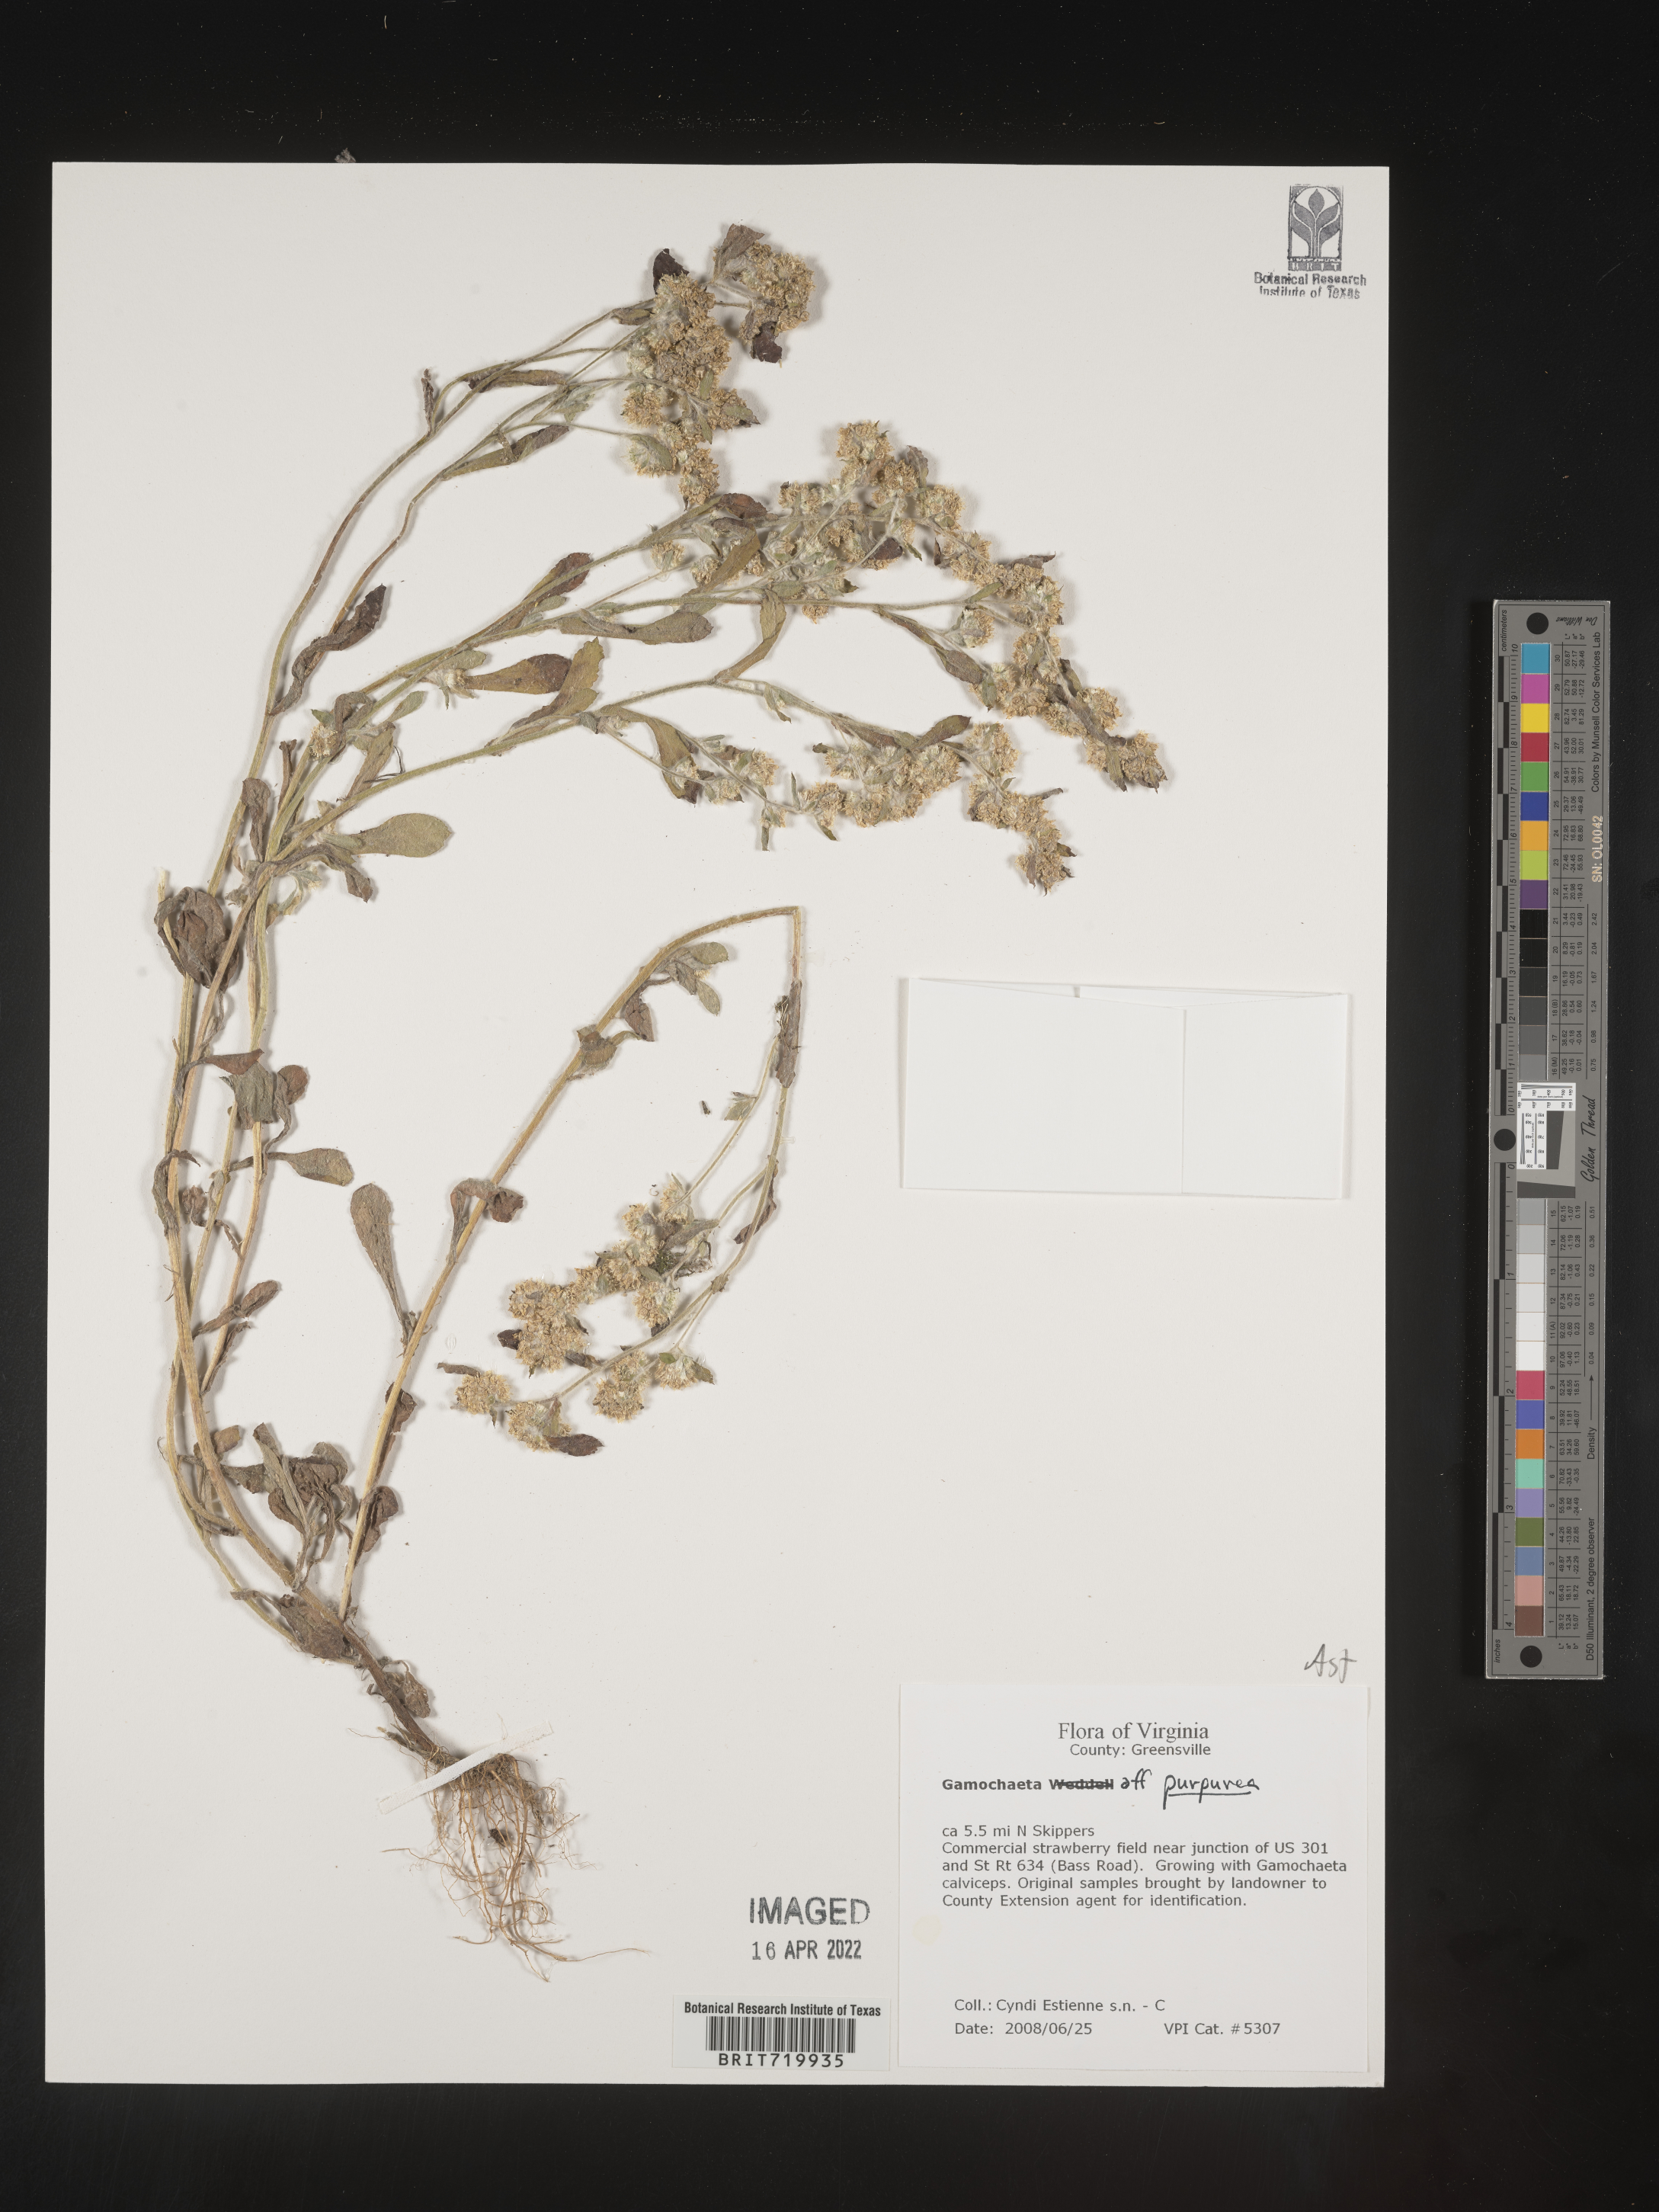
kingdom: Plantae
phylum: Tracheophyta
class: Magnoliopsida
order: Asterales
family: Asteraceae
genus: Gamochaeta
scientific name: Gamochaeta purpurea
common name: Purple cudweed
